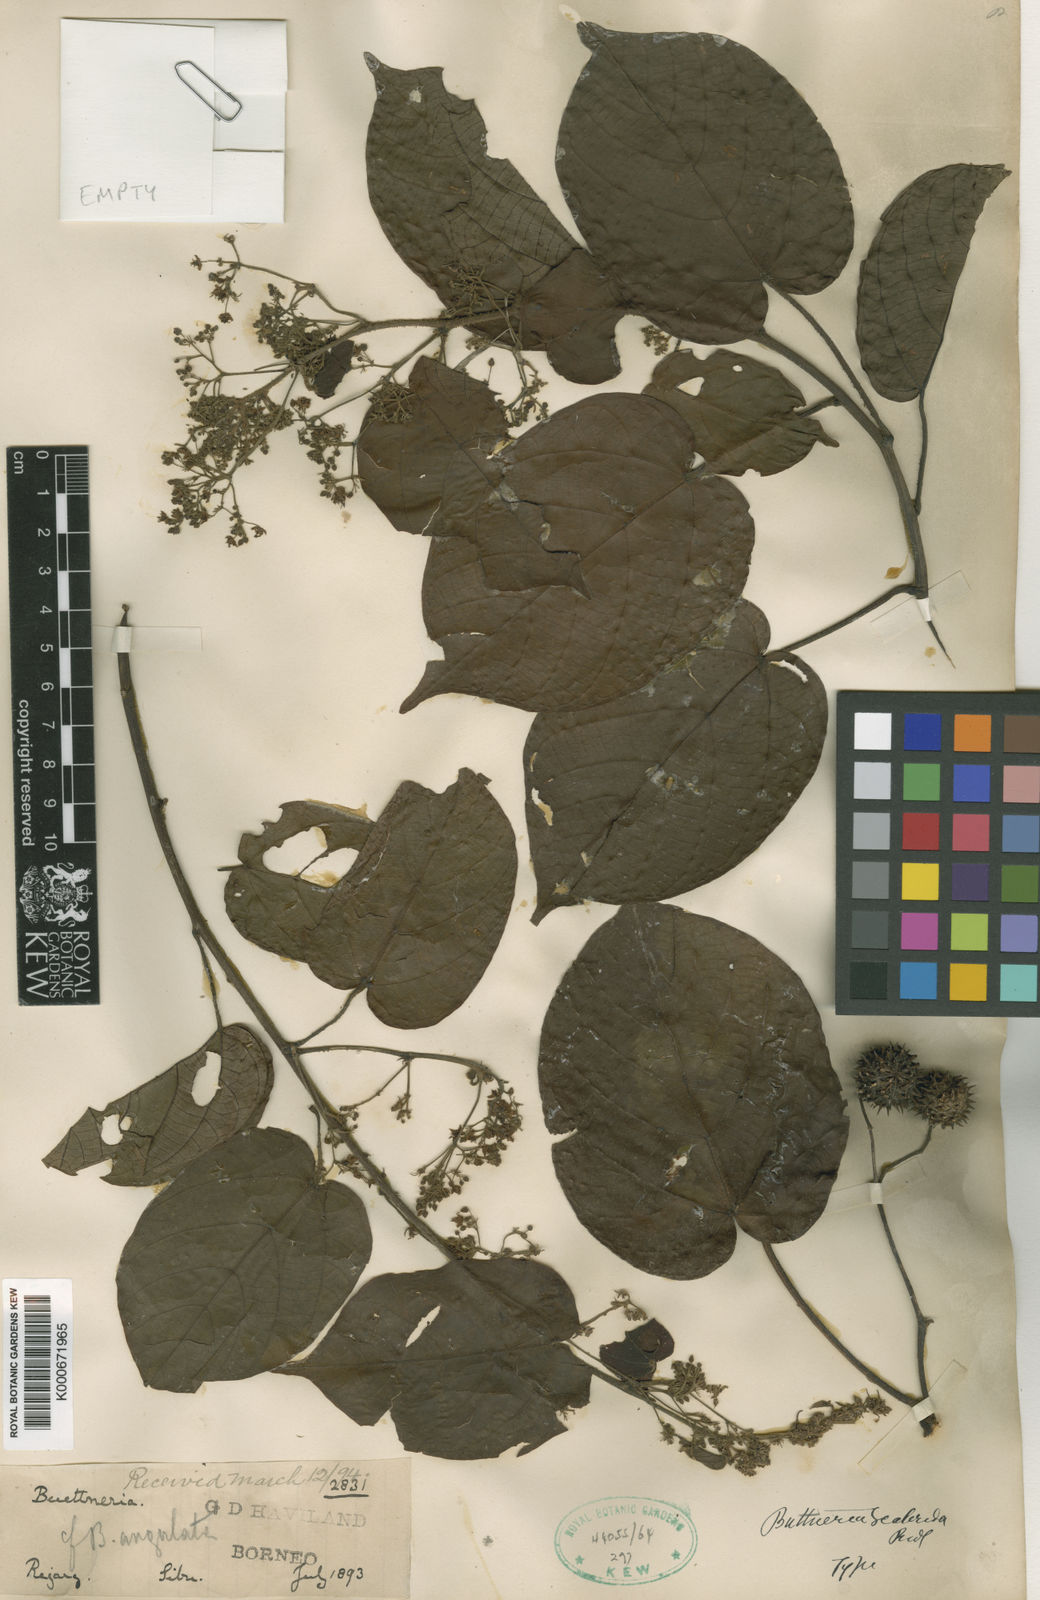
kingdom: Plantae
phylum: Tracheophyta
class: Magnoliopsida
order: Malvales
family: Malvaceae
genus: Byttneria
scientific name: Byttneria scabrida
